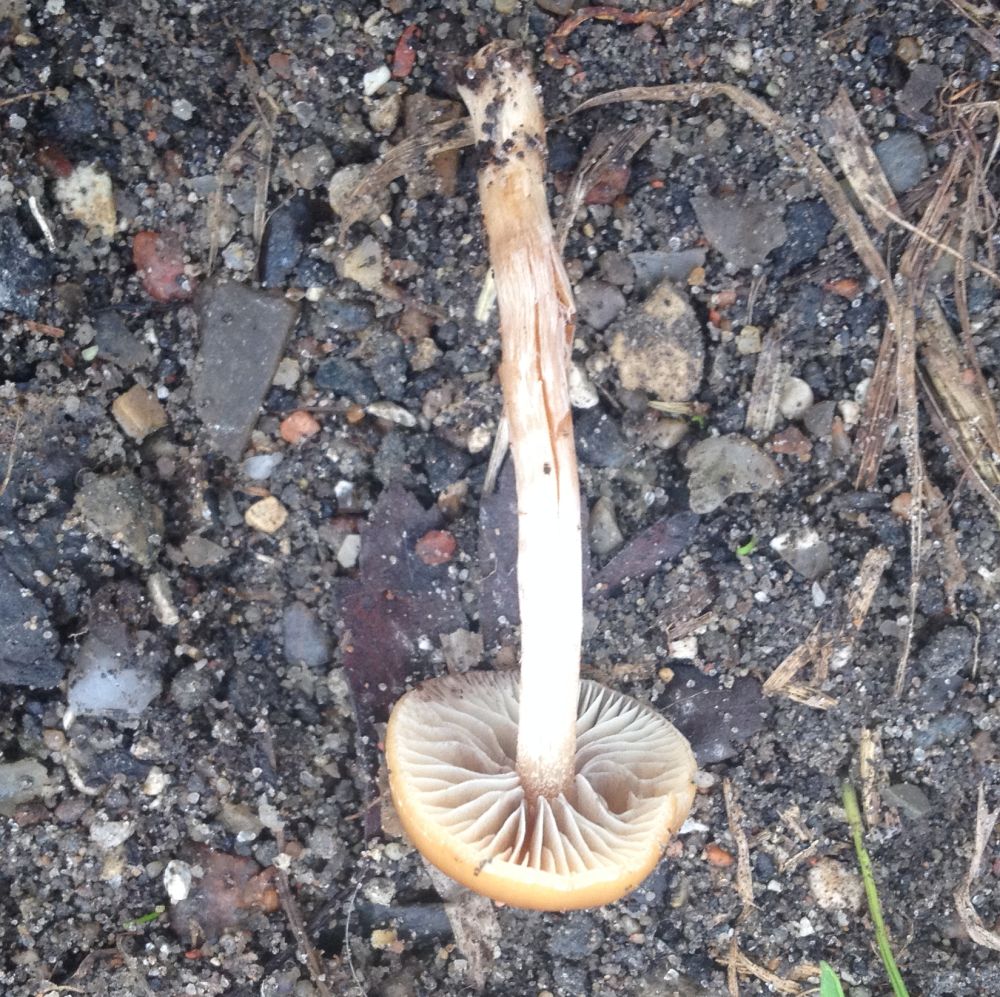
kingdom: Fungi
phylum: Basidiomycota
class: Agaricomycetes
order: Agaricales
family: Strophariaceae
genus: Hypholoma
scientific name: Hypholoma subericaeum
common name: eng-svovlhat
